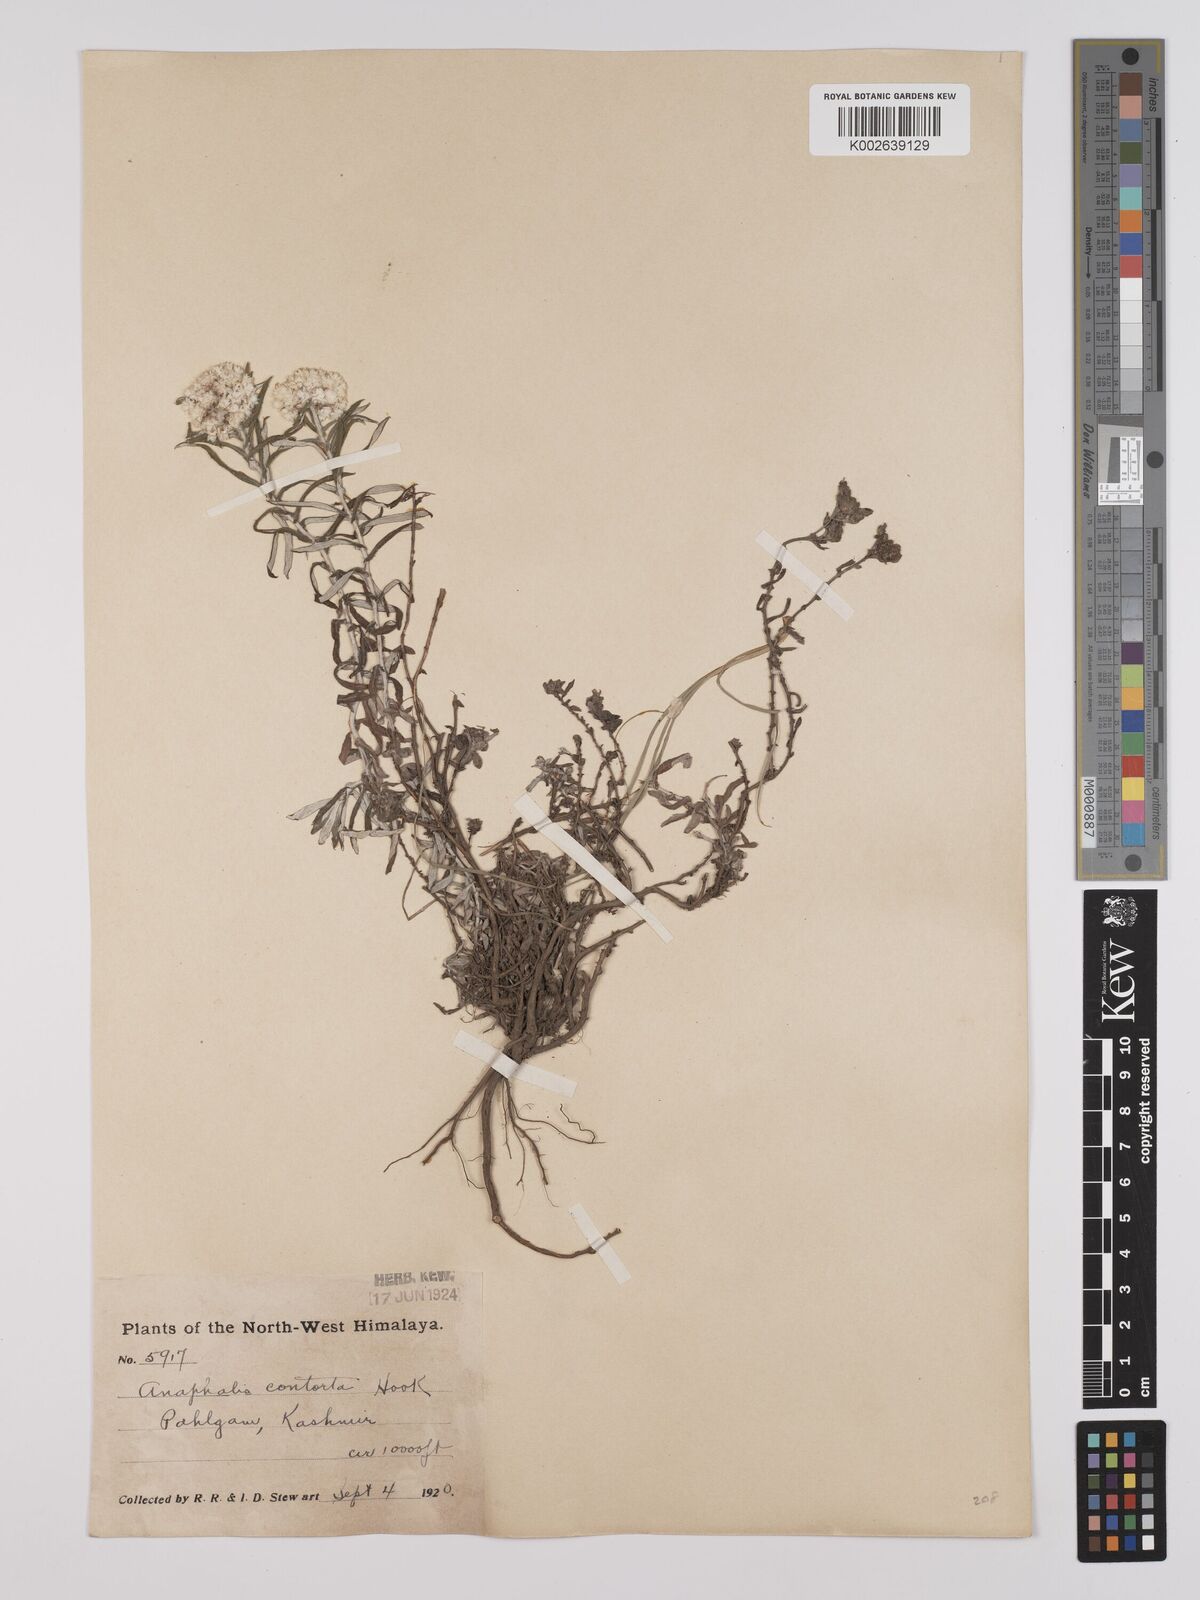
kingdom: Plantae
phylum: Tracheophyta
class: Magnoliopsida
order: Asterales
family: Asteraceae
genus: Anaphalis
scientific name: Anaphalis contorta
